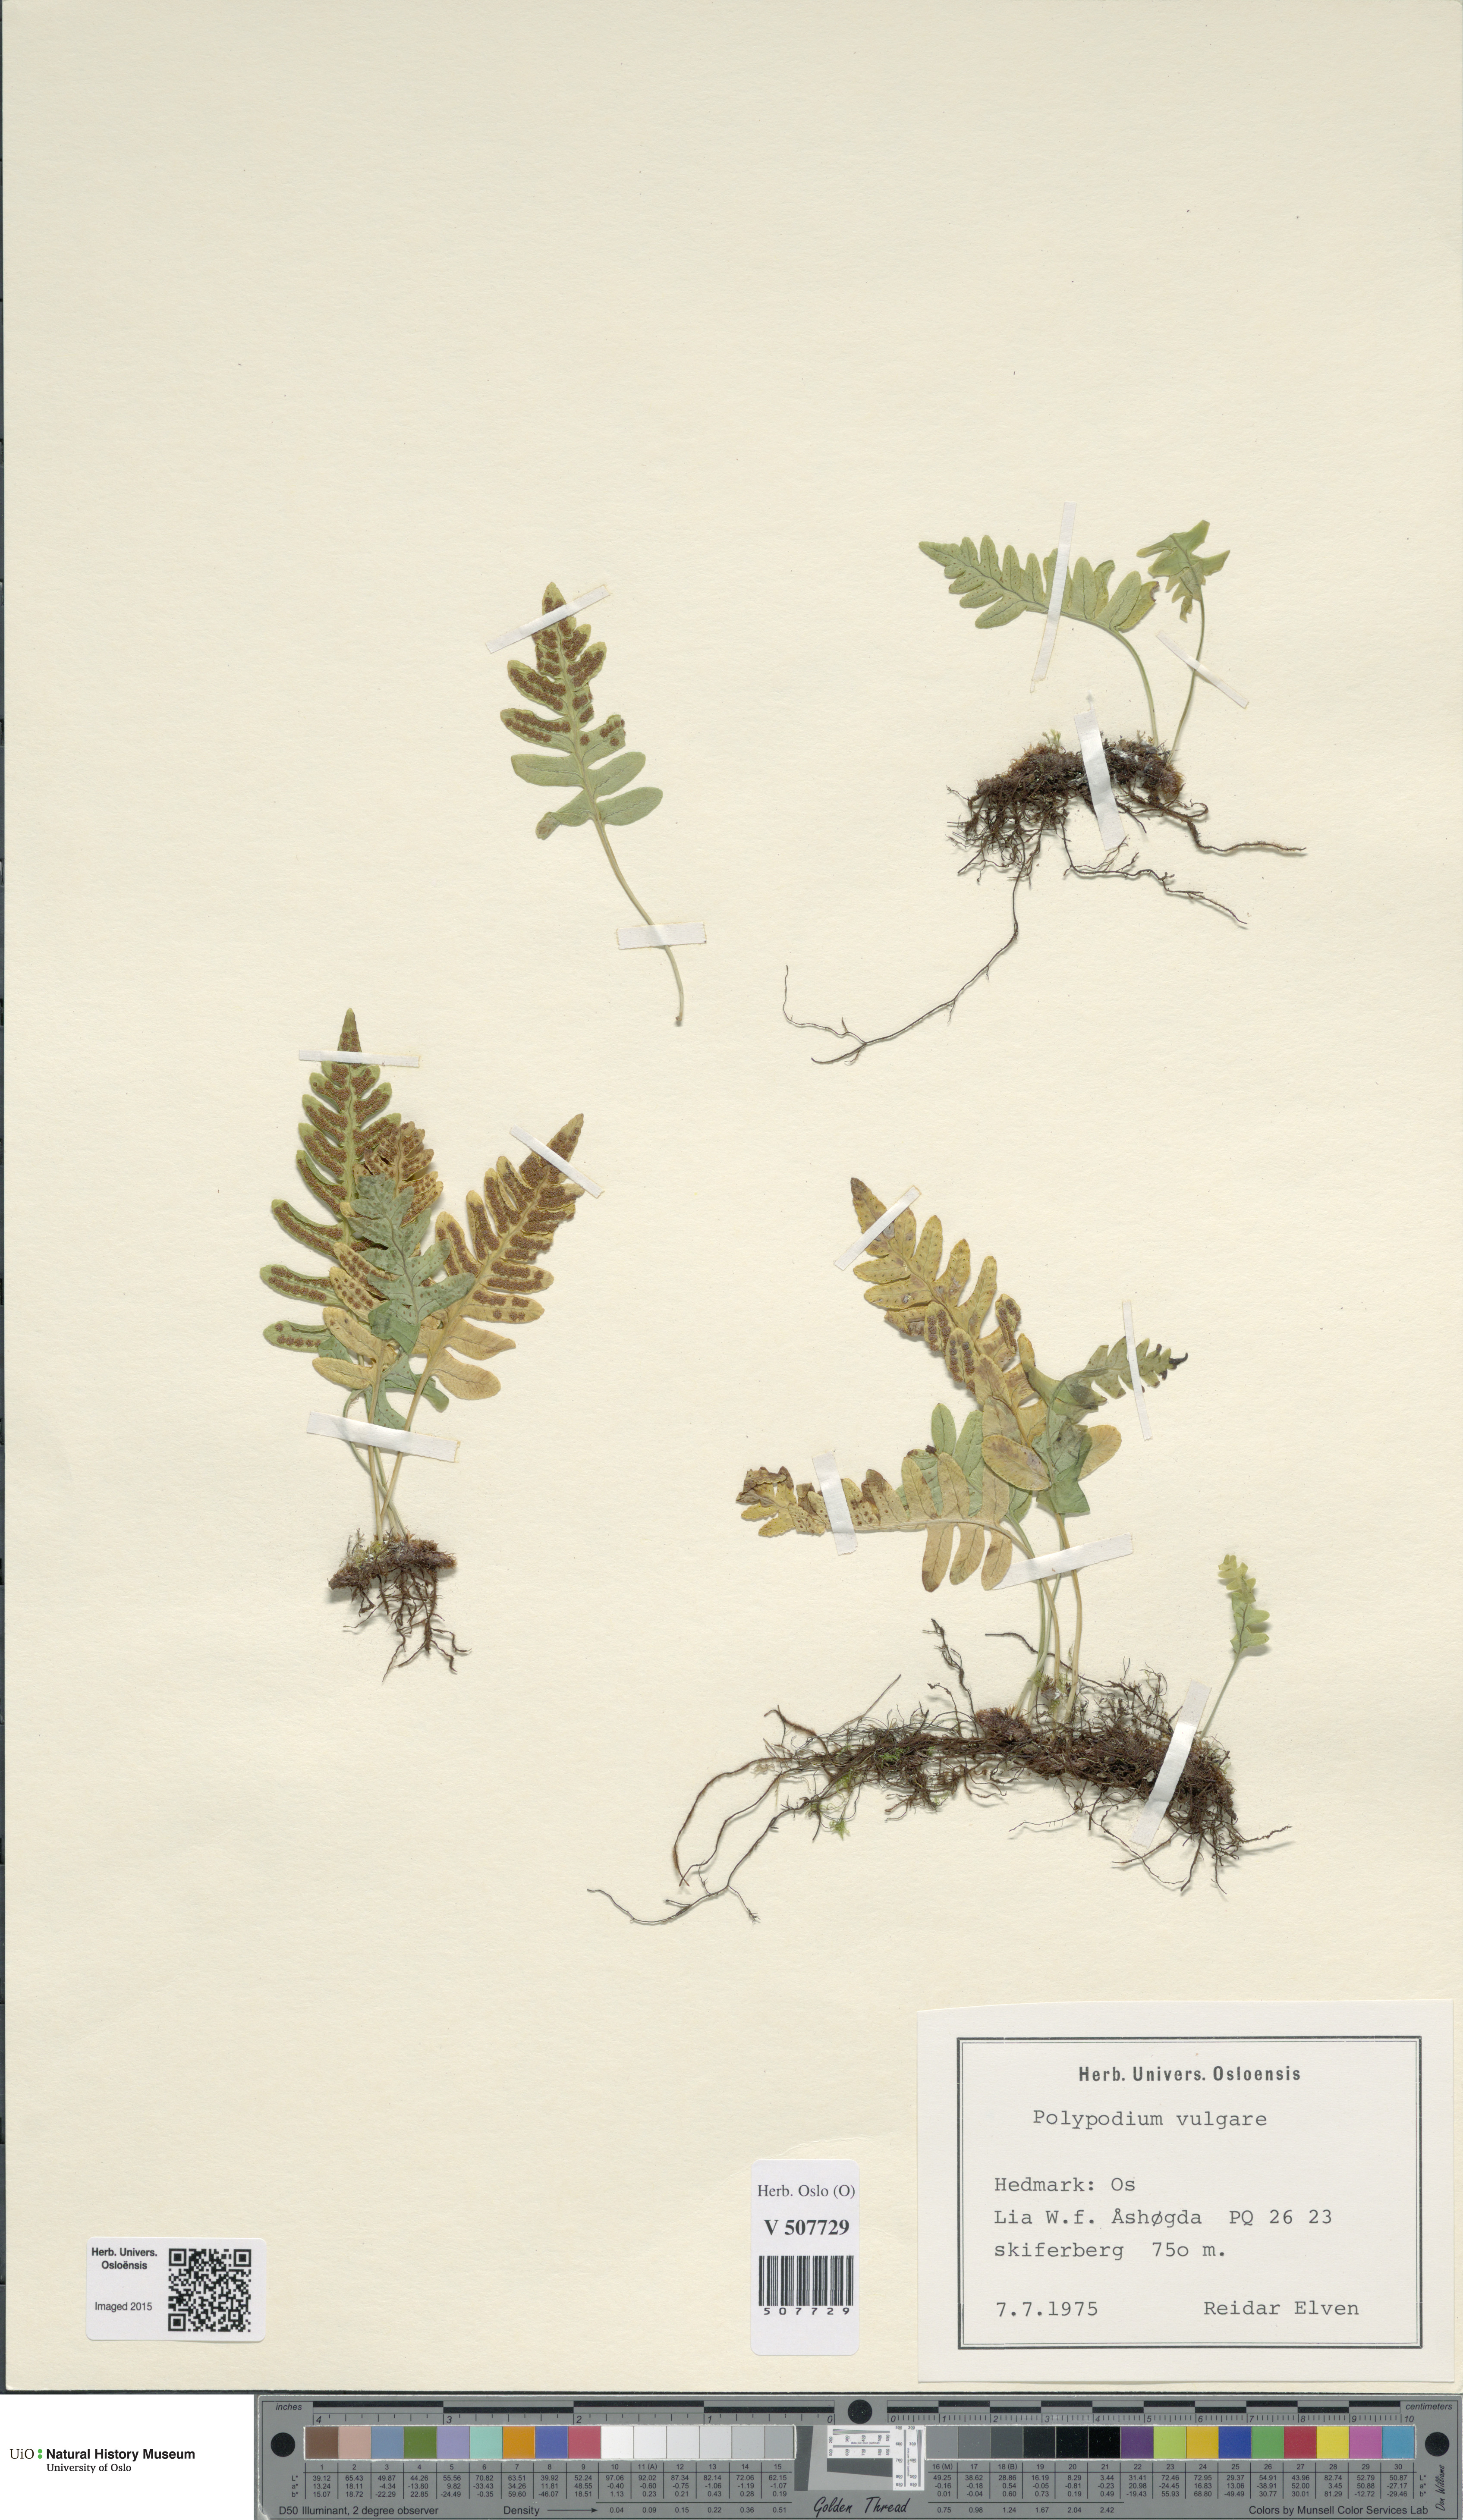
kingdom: Plantae
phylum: Tracheophyta
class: Polypodiopsida
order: Polypodiales
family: Polypodiaceae
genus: Polypodium
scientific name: Polypodium vulgare
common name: Common polypody
